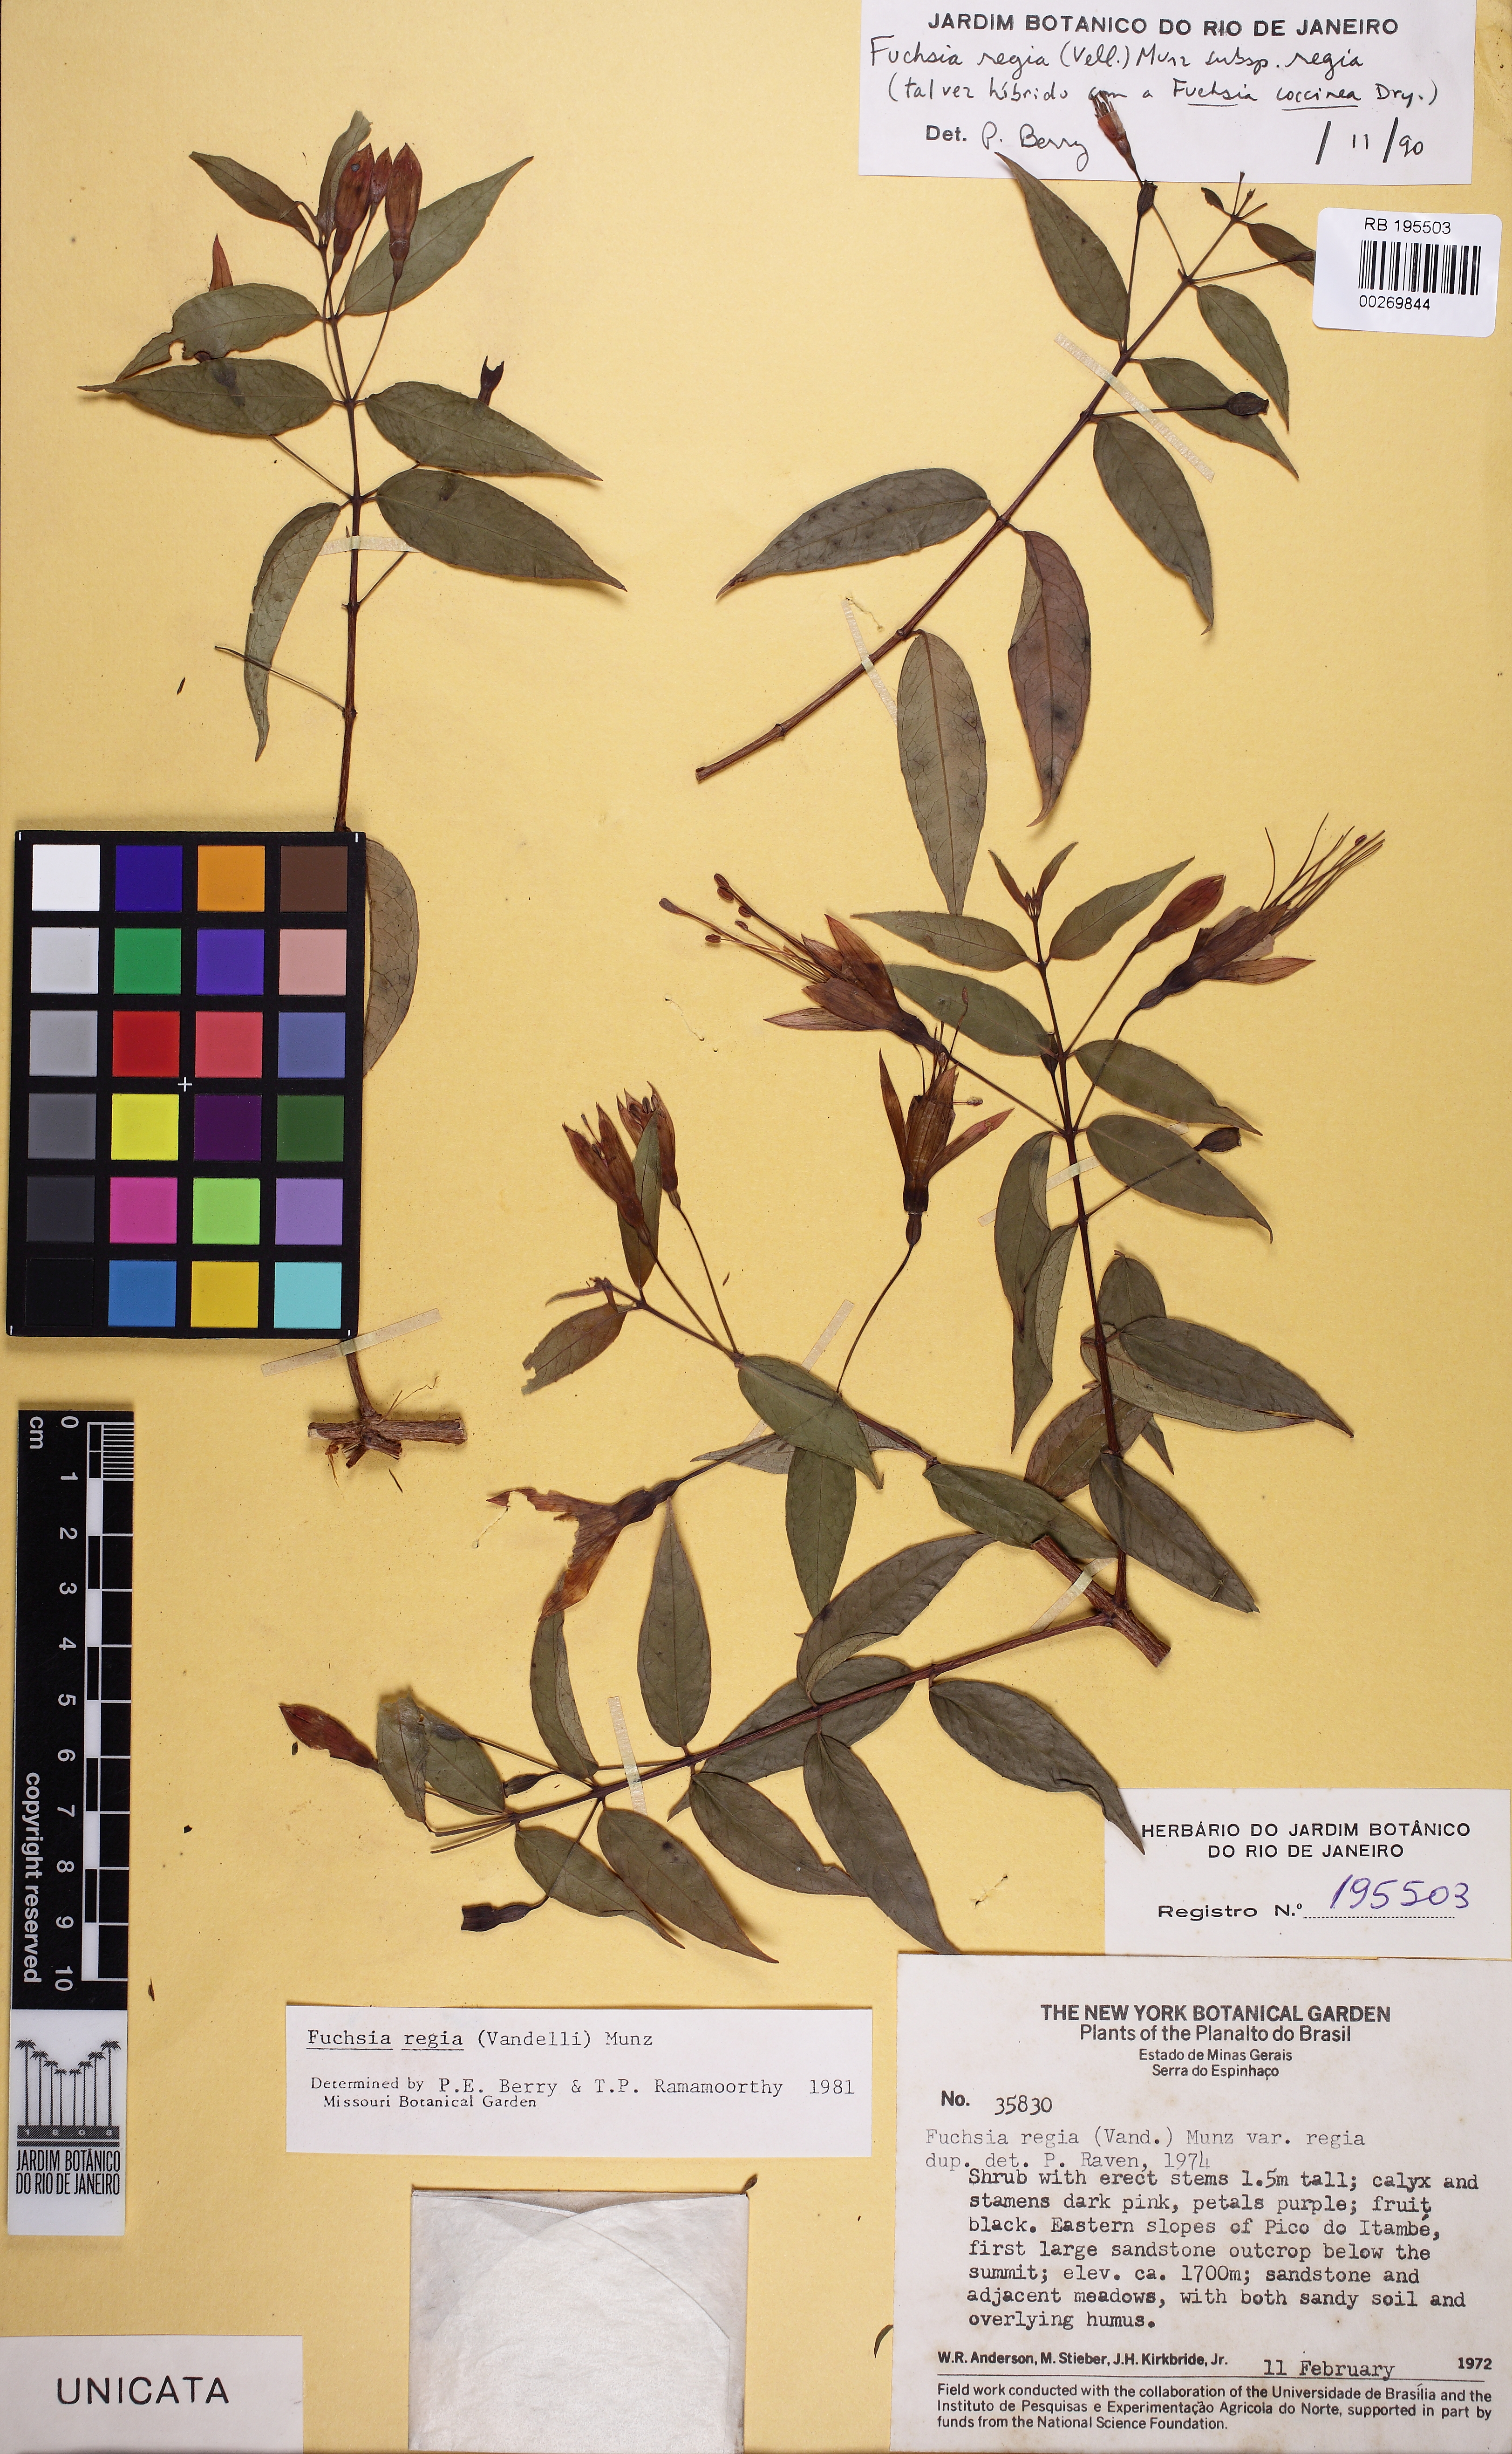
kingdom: Plantae
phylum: Tracheophyta
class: Magnoliopsida
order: Myrtales
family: Onagraceae
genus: Fuchsia
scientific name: Fuchsia regia
